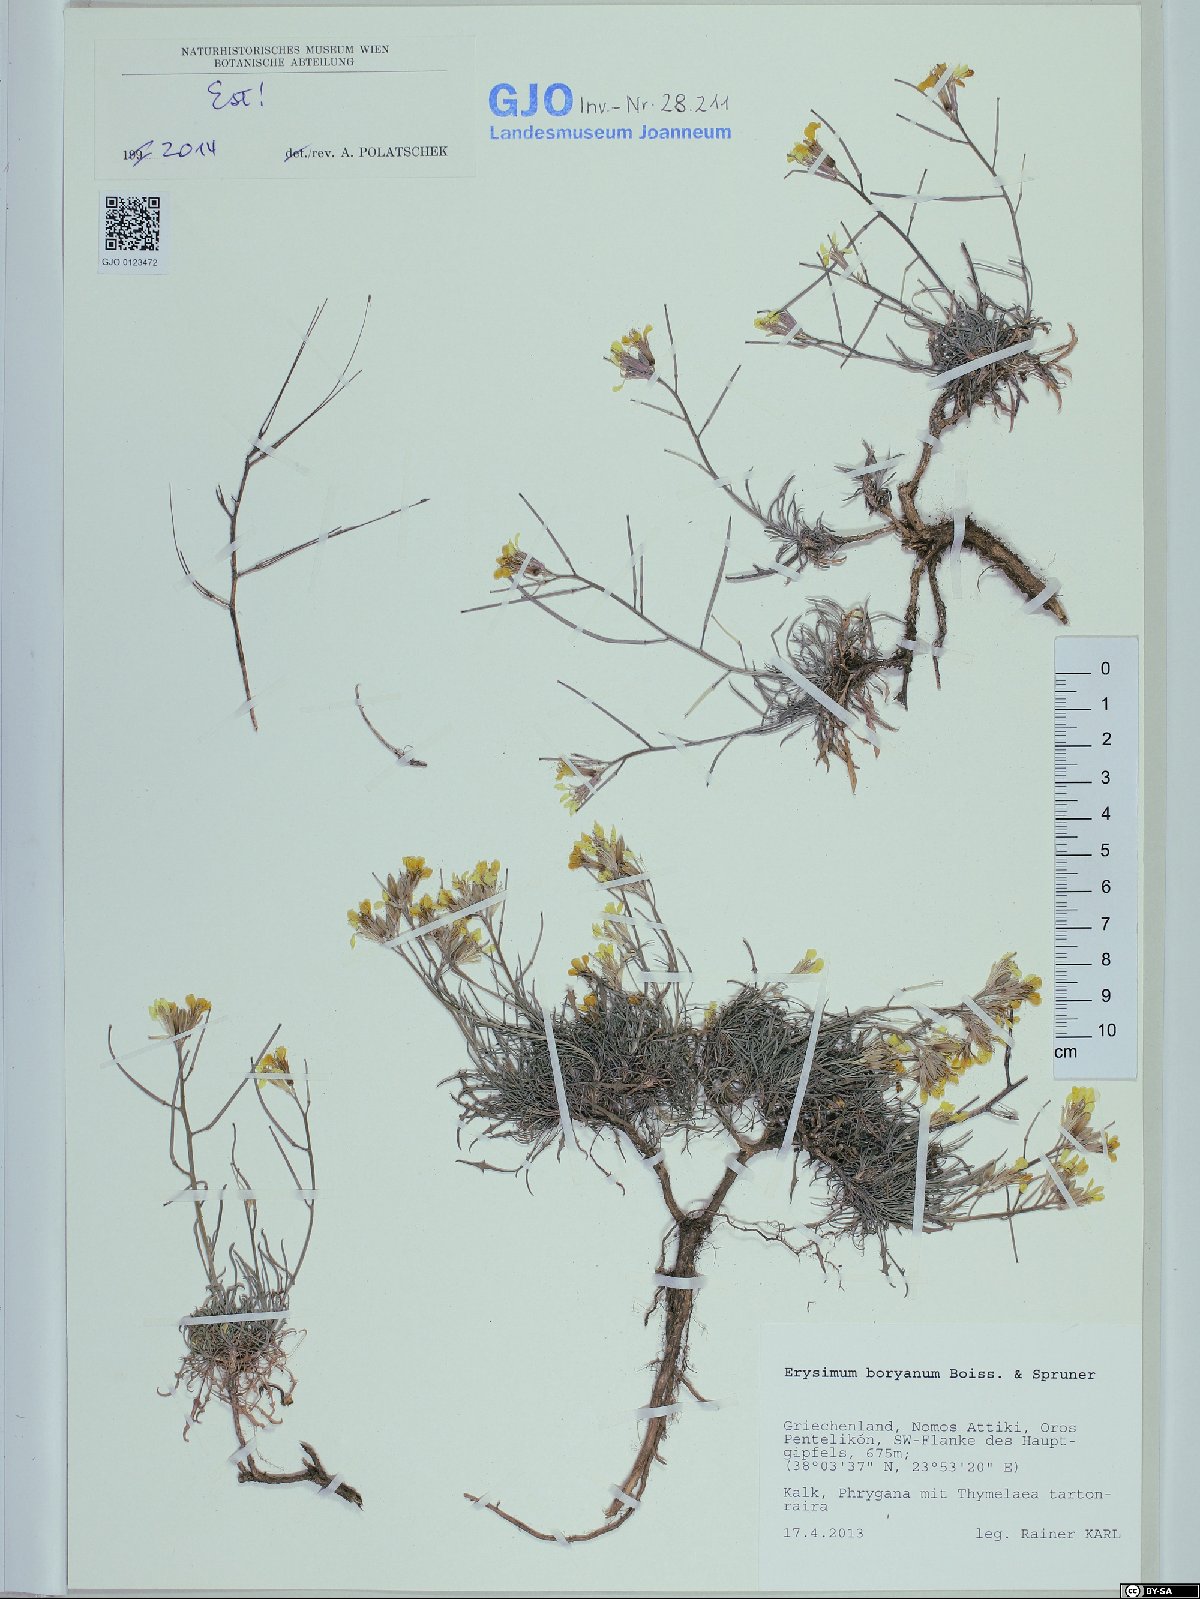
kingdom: Plantae
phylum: Tracheophyta
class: Magnoliopsida
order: Brassicales
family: Brassicaceae
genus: Erysimum
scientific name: Erysimum pusillum
